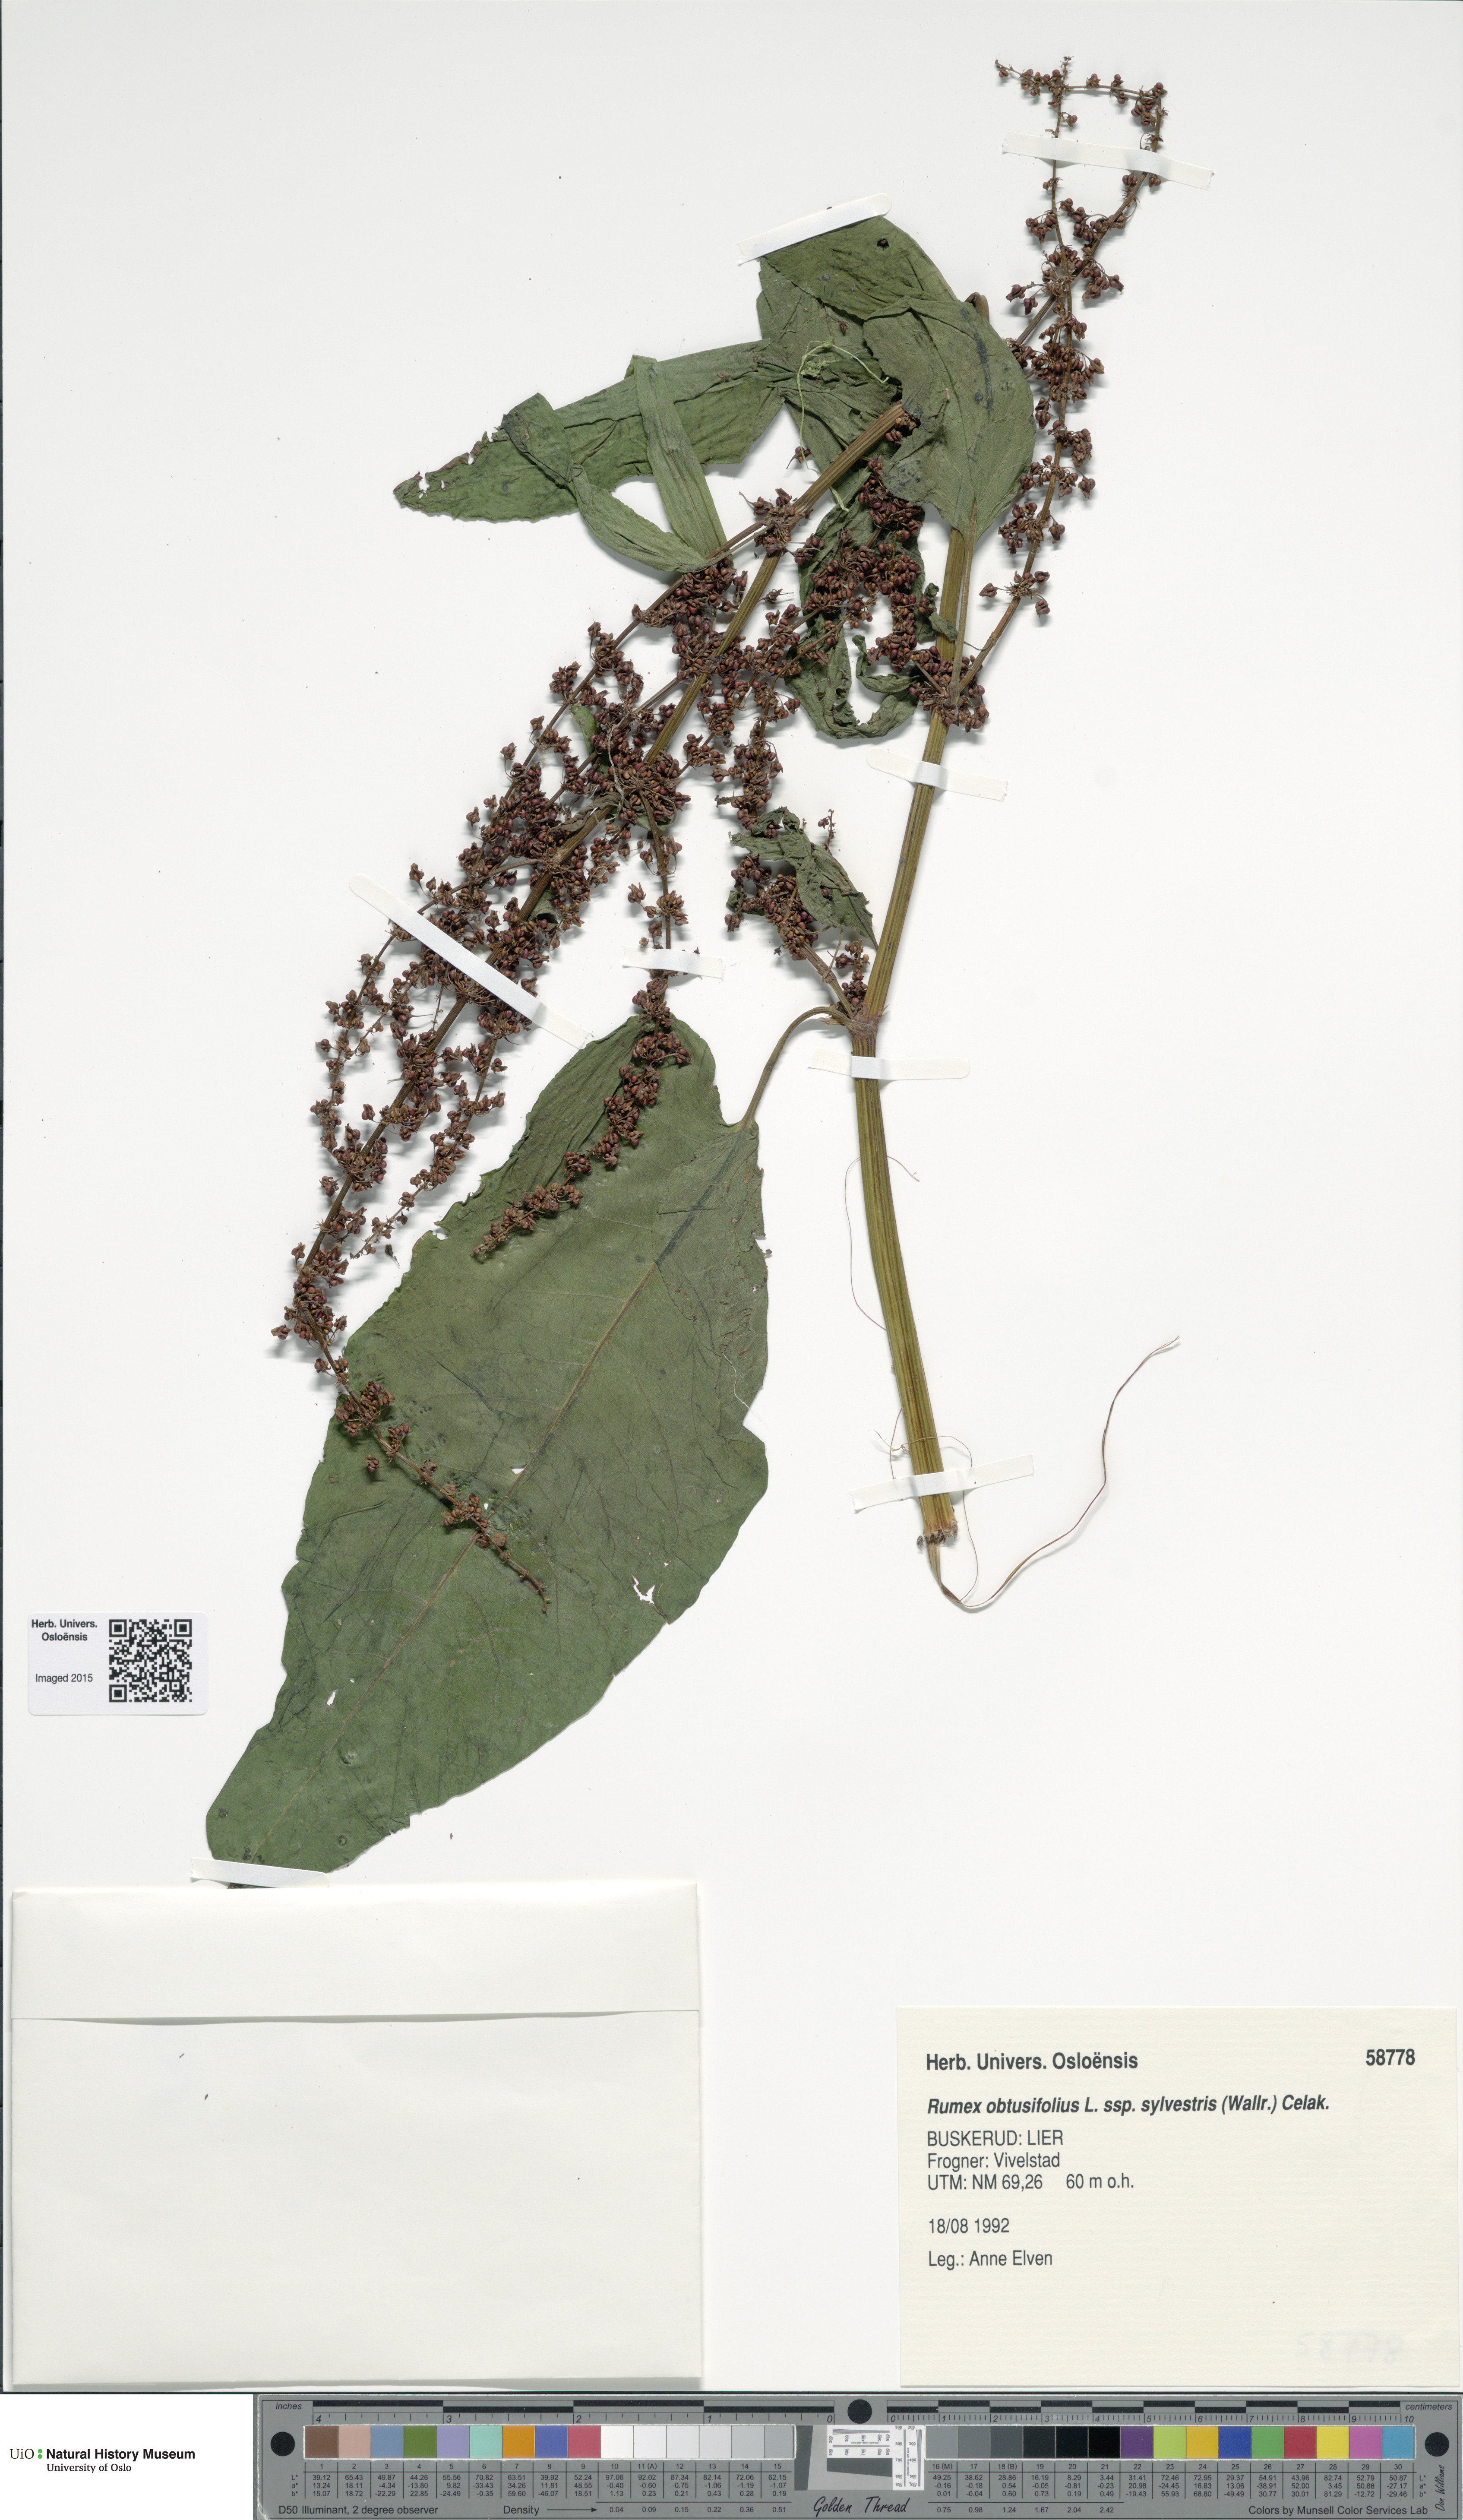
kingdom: Plantae
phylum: Tracheophyta
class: Magnoliopsida
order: Caryophyllales
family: Polygonaceae
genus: Rumex
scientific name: Rumex obtusifolius
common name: Bitter dock
